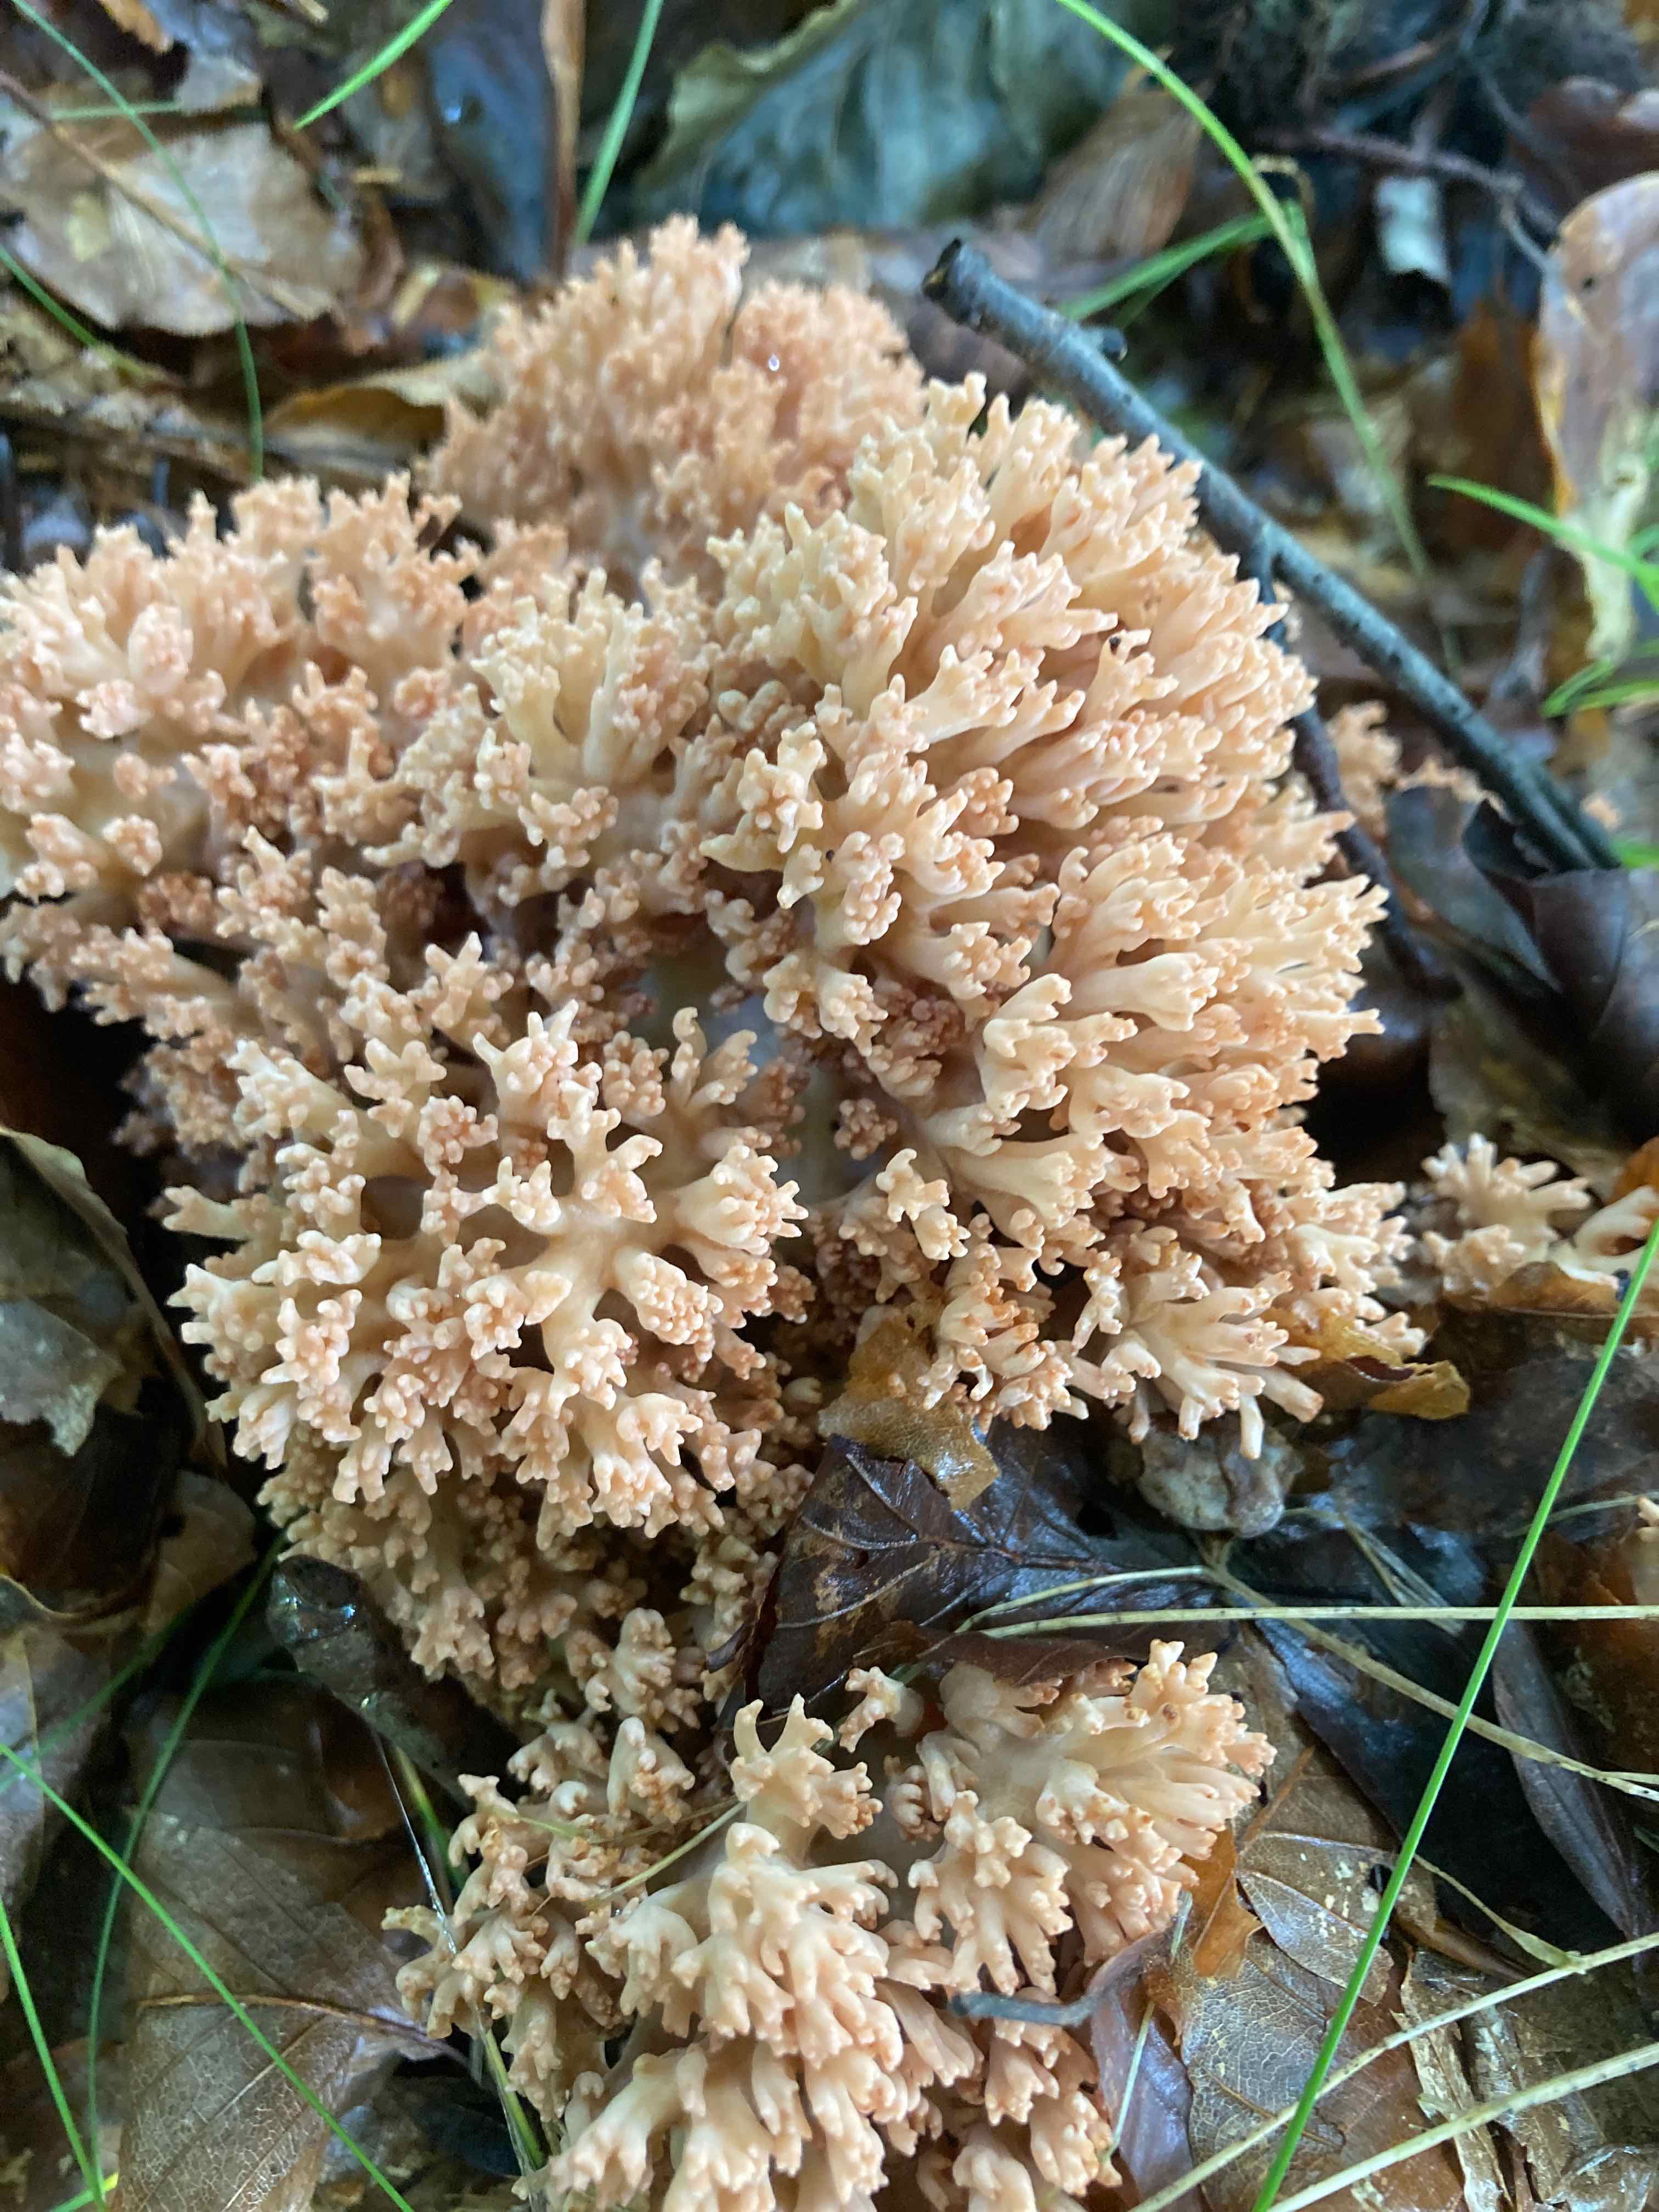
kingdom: Fungi
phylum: Basidiomycota
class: Agaricomycetes
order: Gomphales
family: Gomphaceae
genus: Ramaria
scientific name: Ramaria botrytis
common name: drue-koralsvamp
